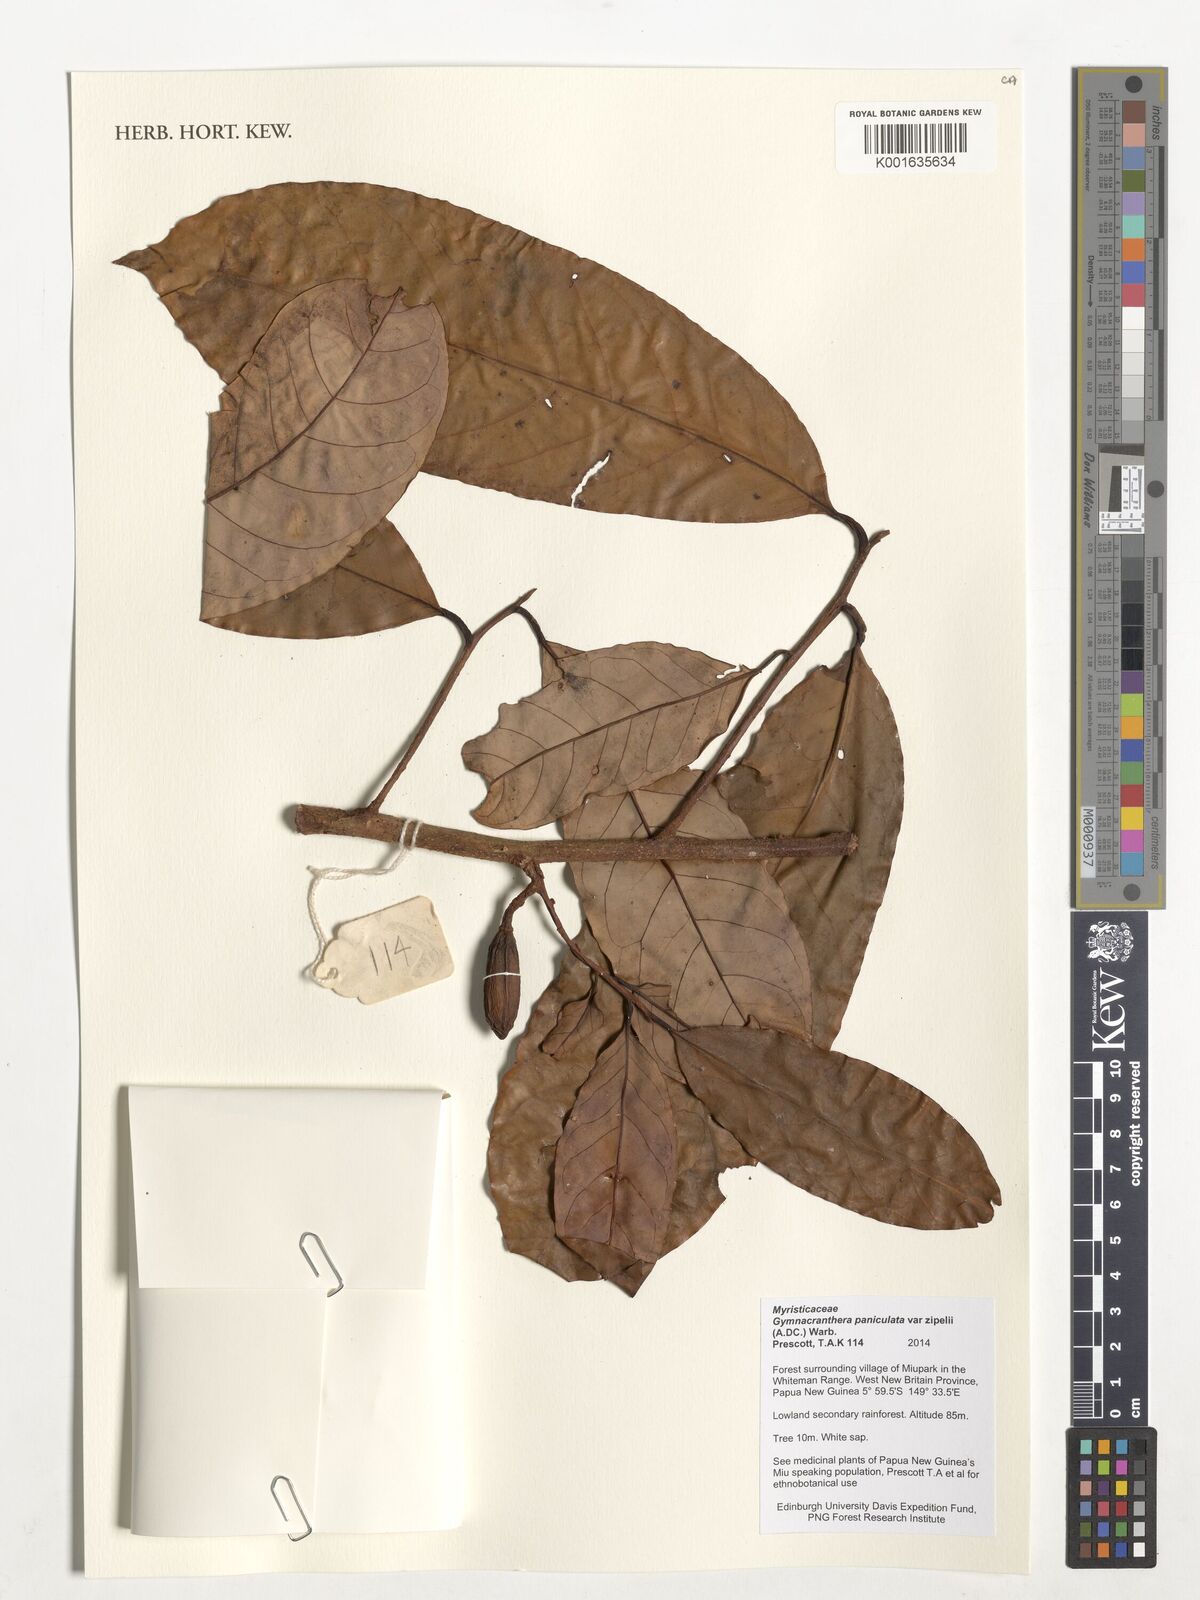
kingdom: Plantae
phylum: Tracheophyta
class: Magnoliopsida
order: Magnoliales
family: Myristicaceae
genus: Gymnacranthera
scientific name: Gymnacranthera farquhariana
